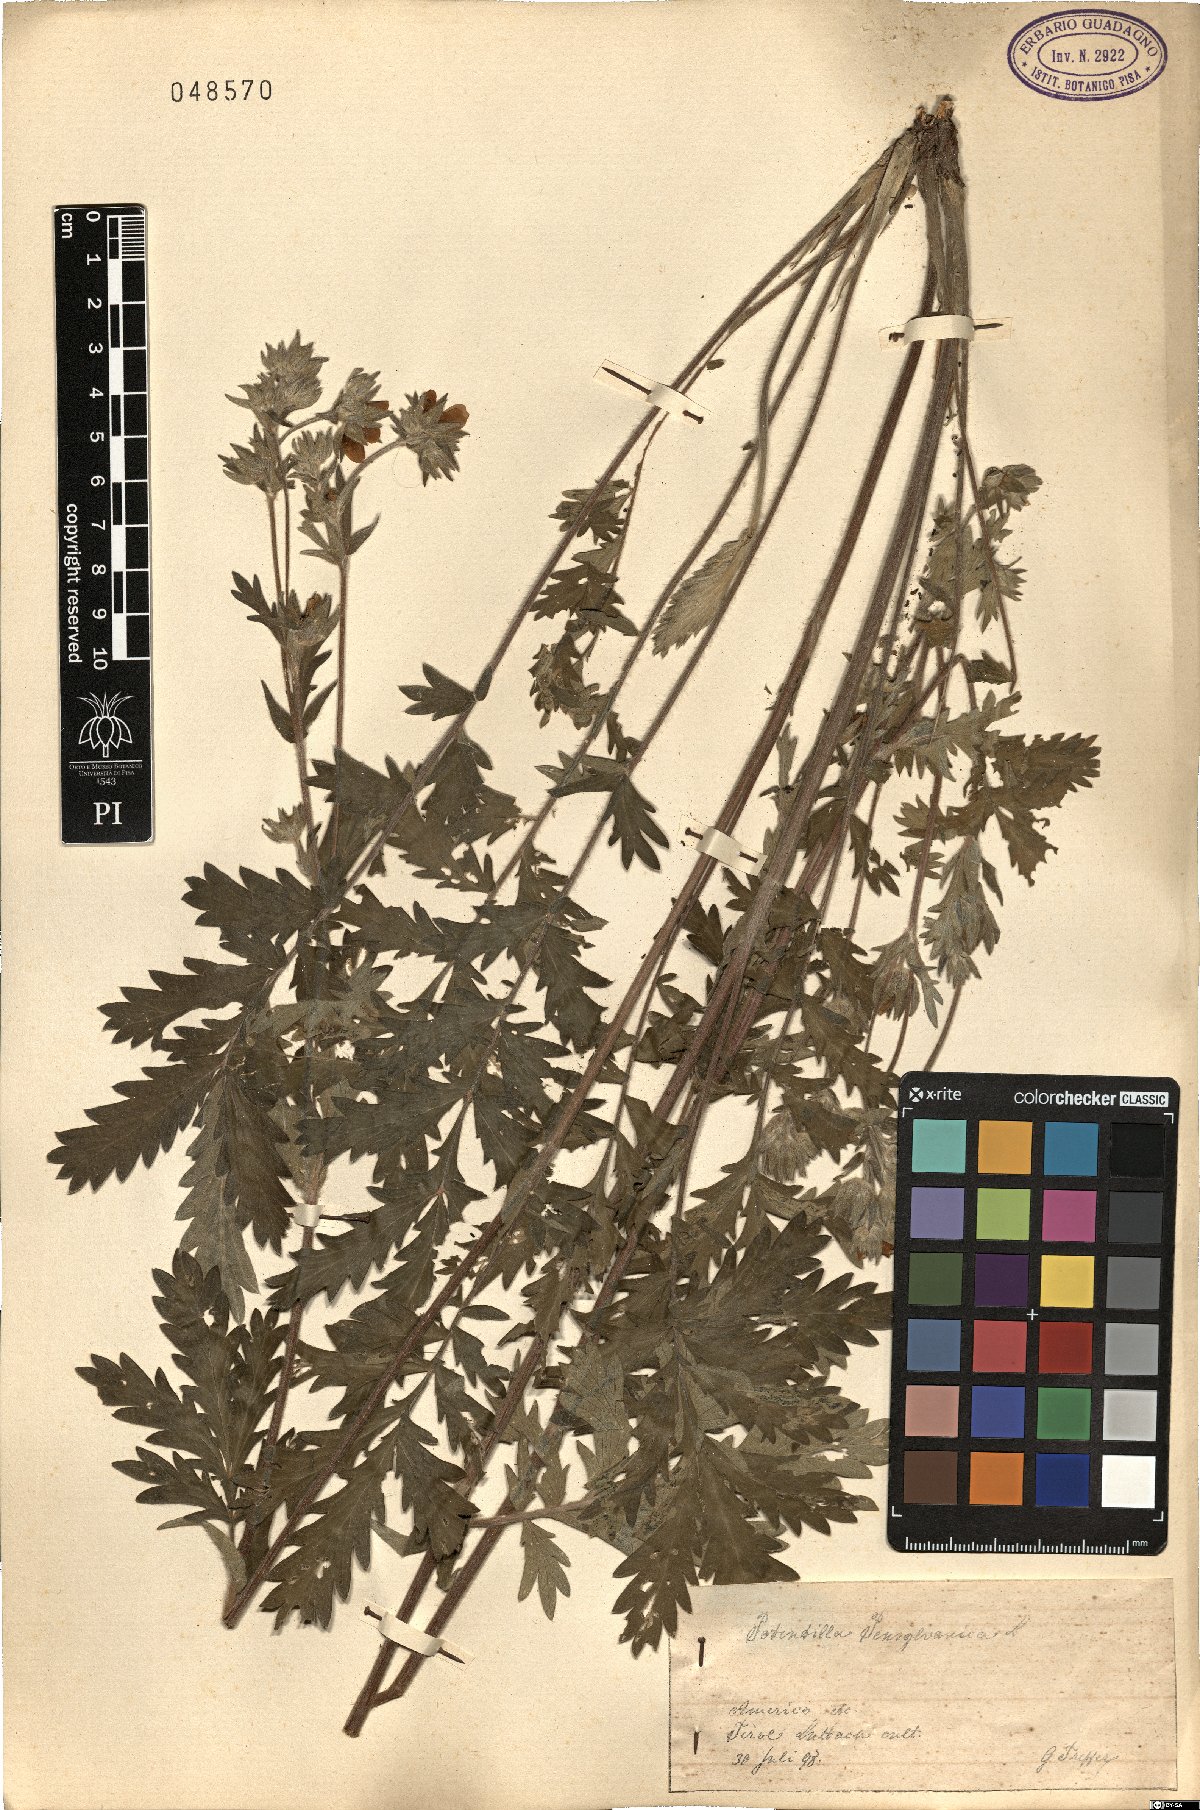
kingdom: Plantae
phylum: Tracheophyta
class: Magnoliopsida
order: Rosales
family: Rosaceae
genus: Potentilla
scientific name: Potentilla pensylvanica
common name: Pennsylvania cinquefoil
